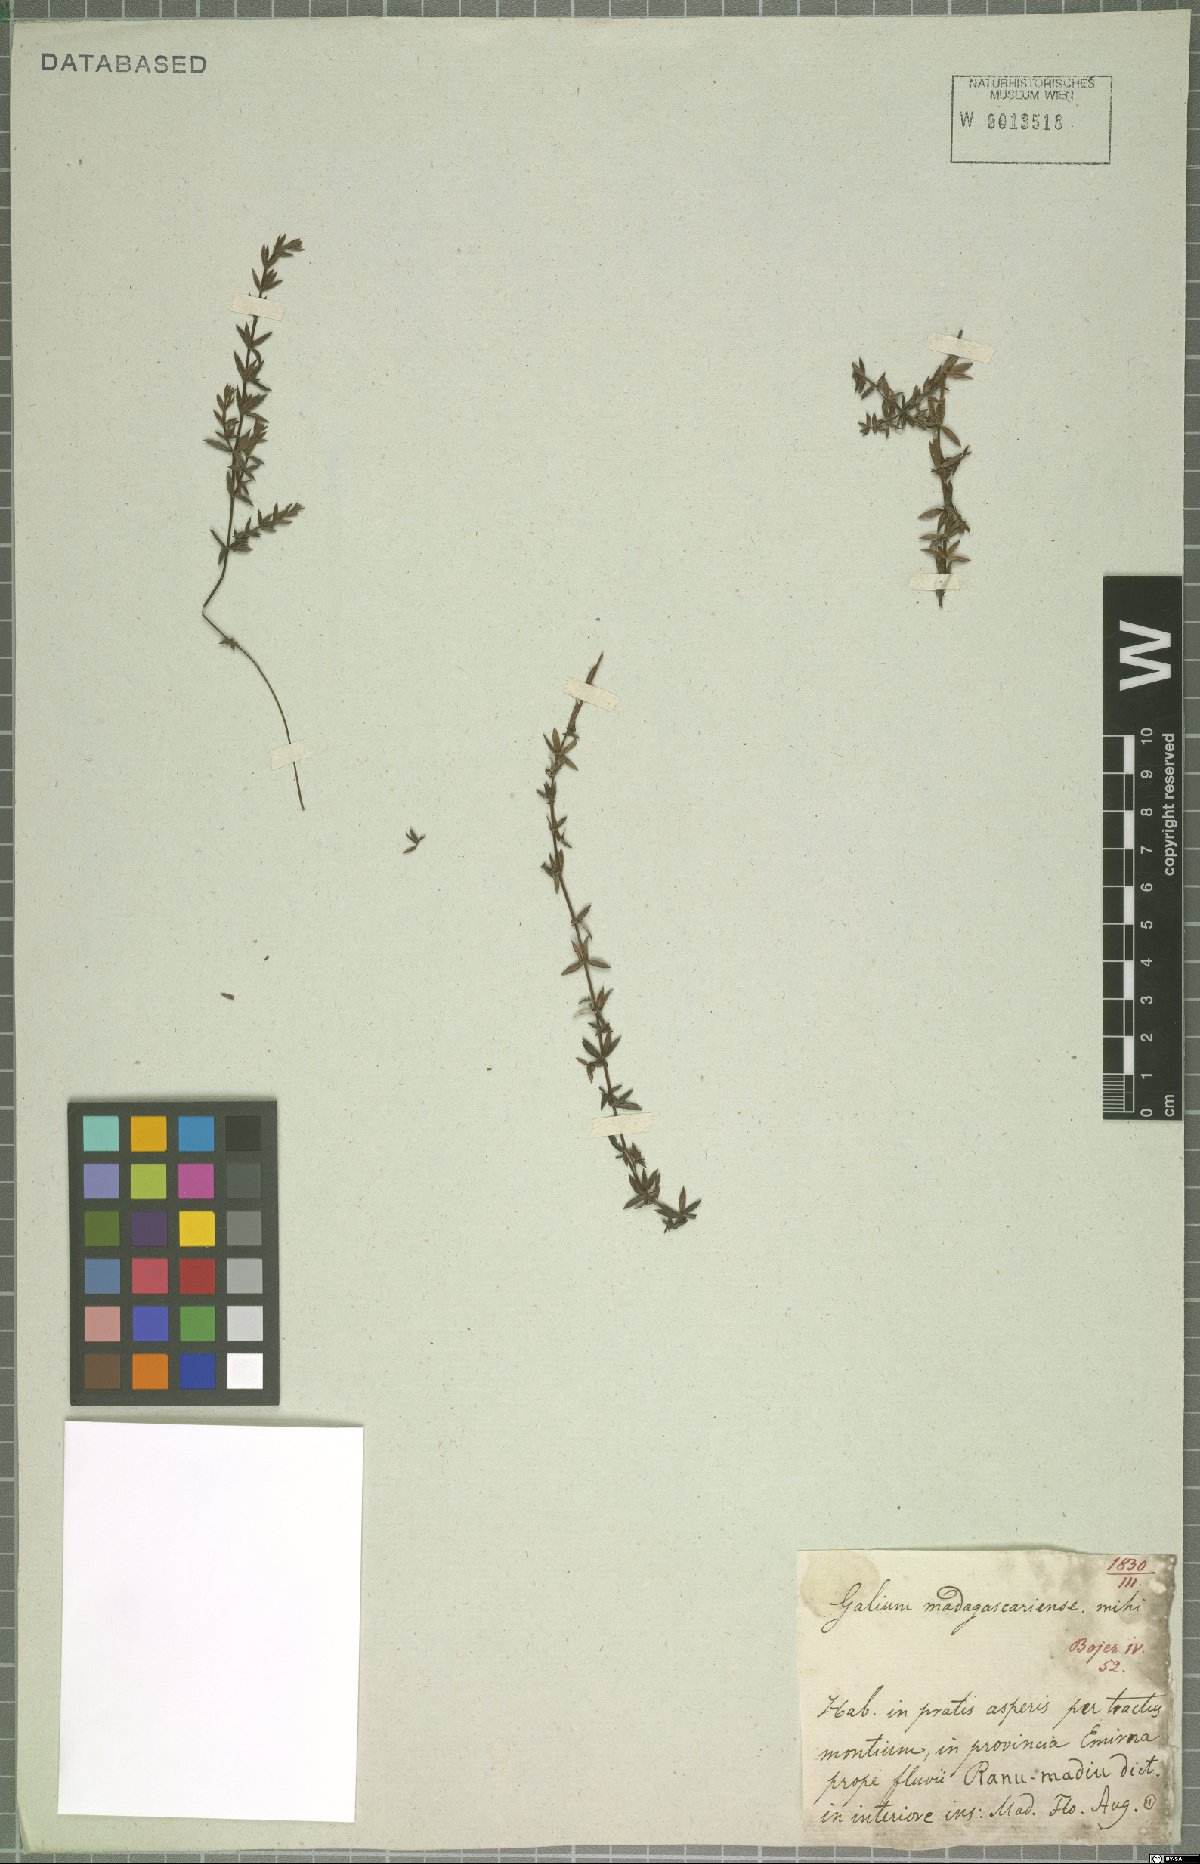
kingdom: Plantae
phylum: Tracheophyta
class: Magnoliopsida
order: Gentianales
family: Rubiaceae
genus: Galium
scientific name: Galium
